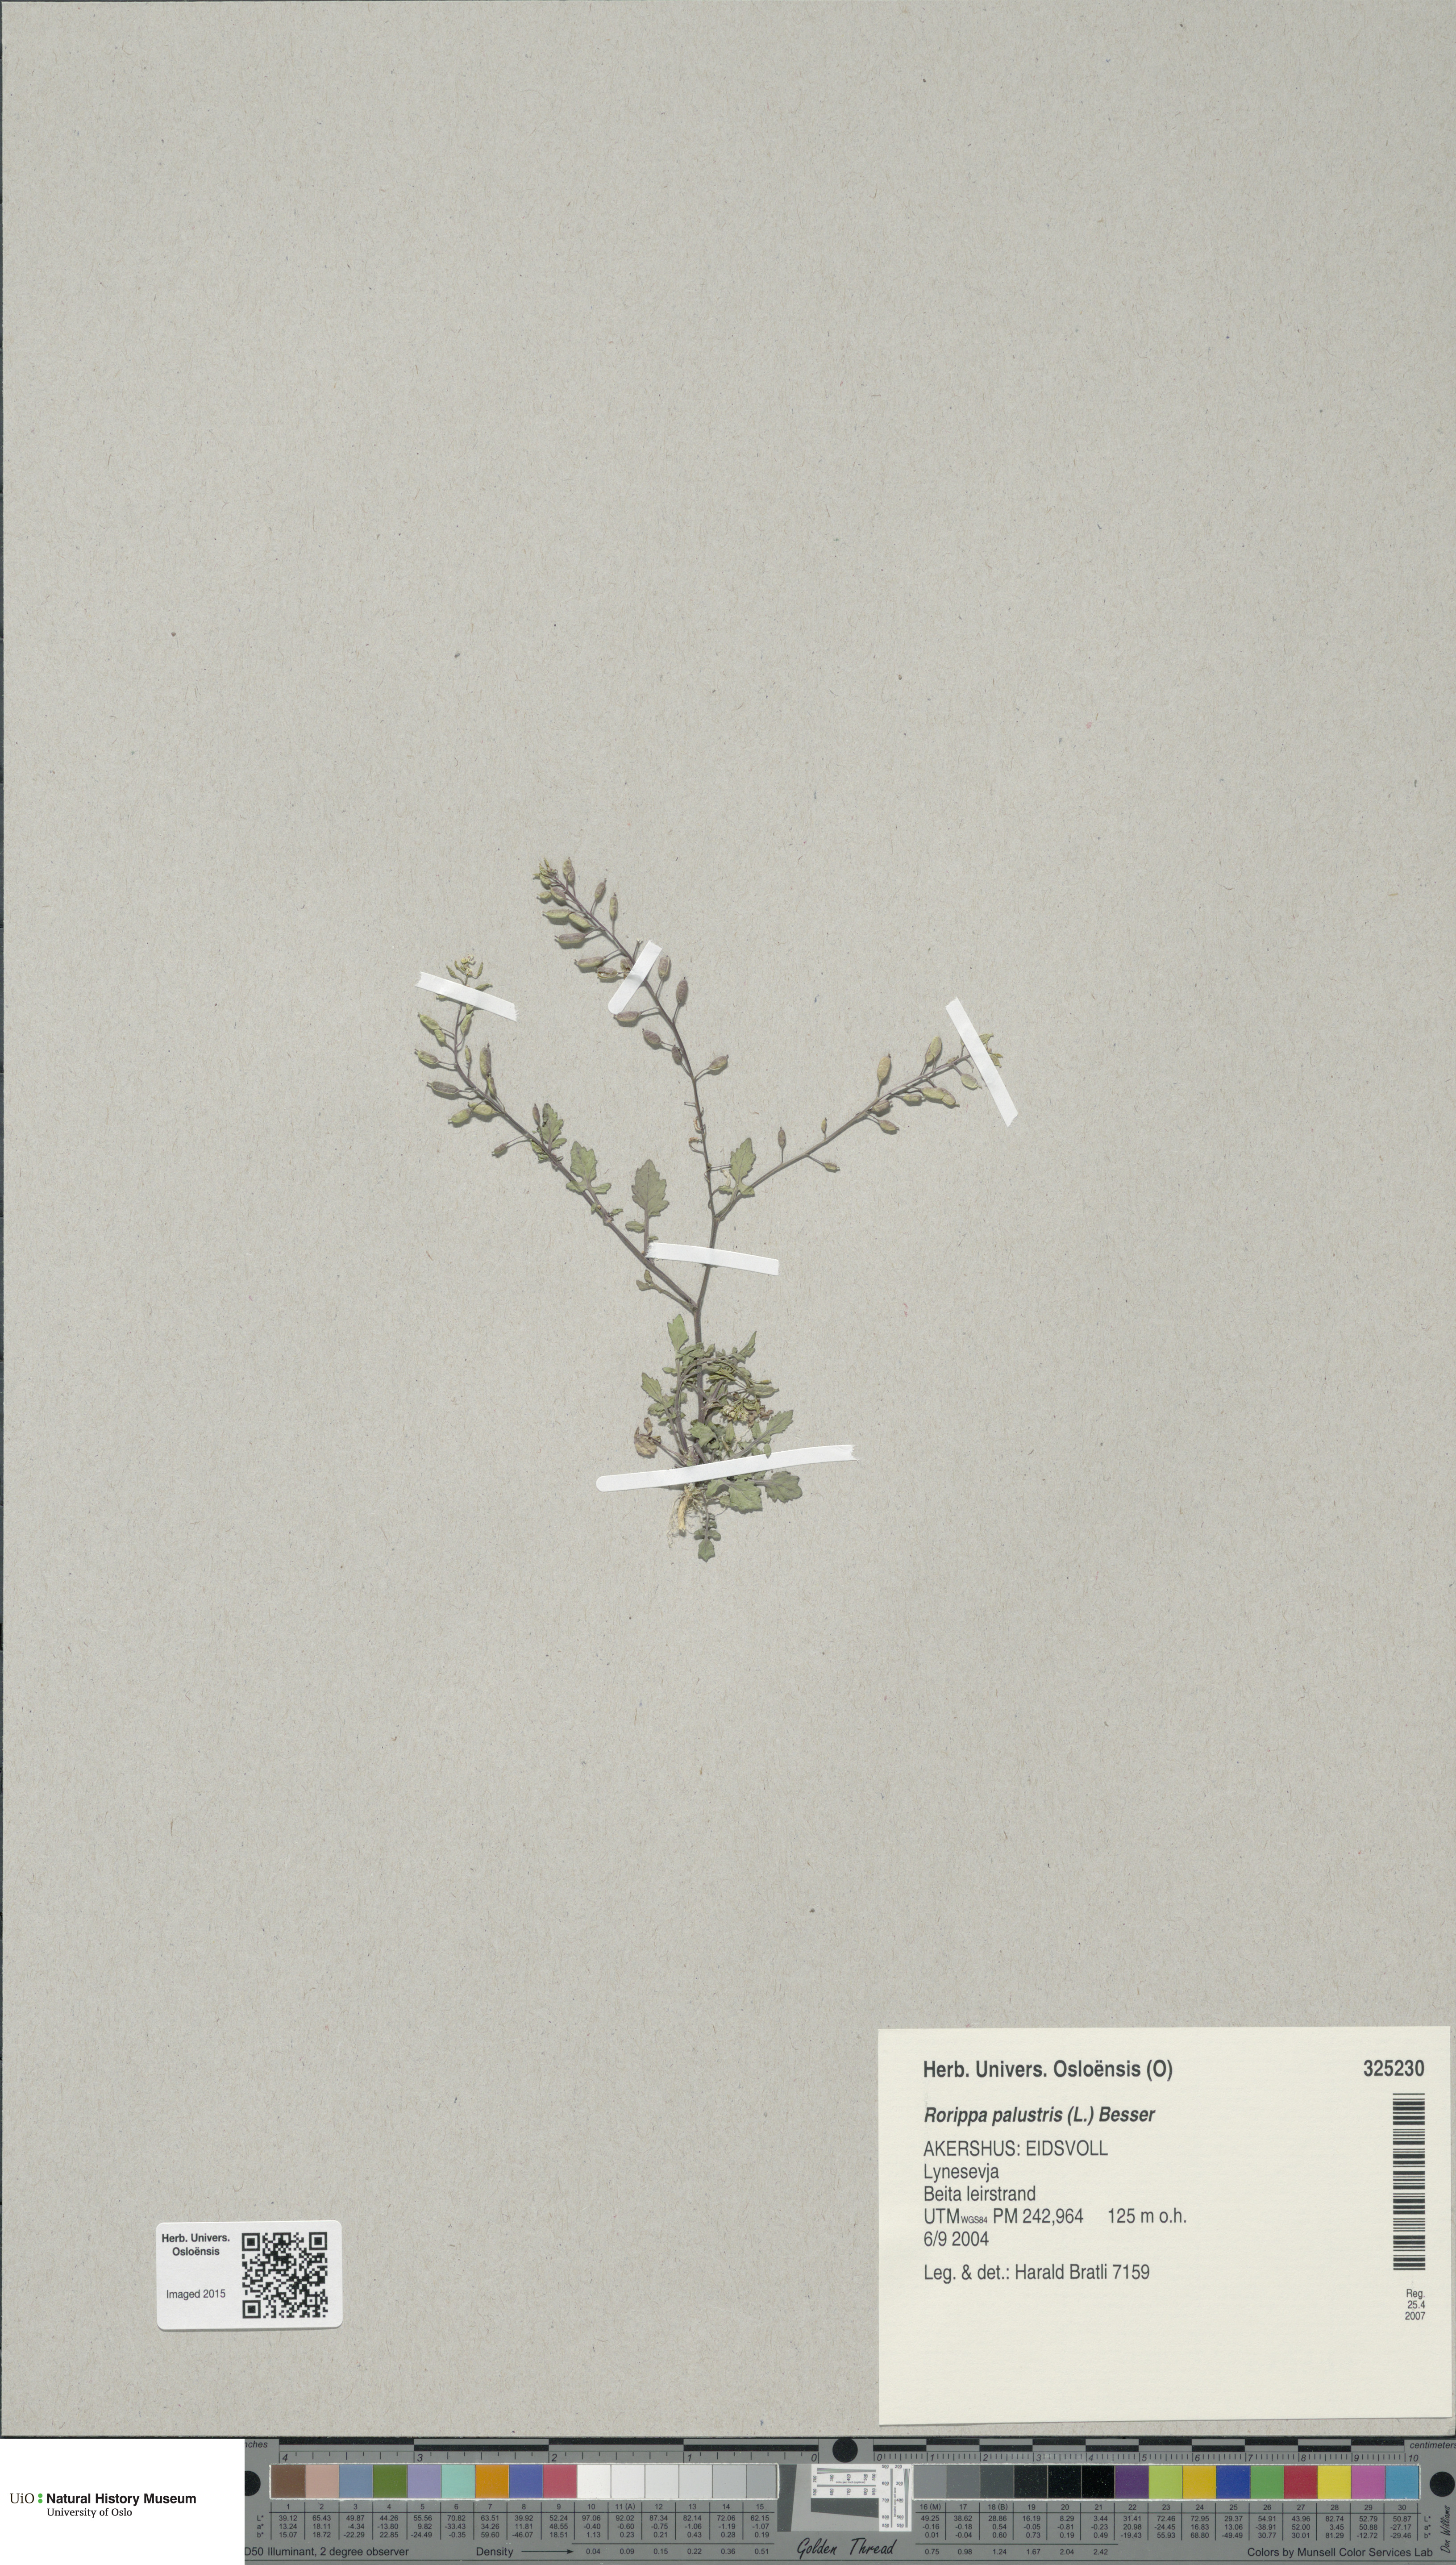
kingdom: Plantae
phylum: Tracheophyta
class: Magnoliopsida
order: Brassicales
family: Brassicaceae
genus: Rorippa
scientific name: Rorippa palustris
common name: Marsh yellow-cress
